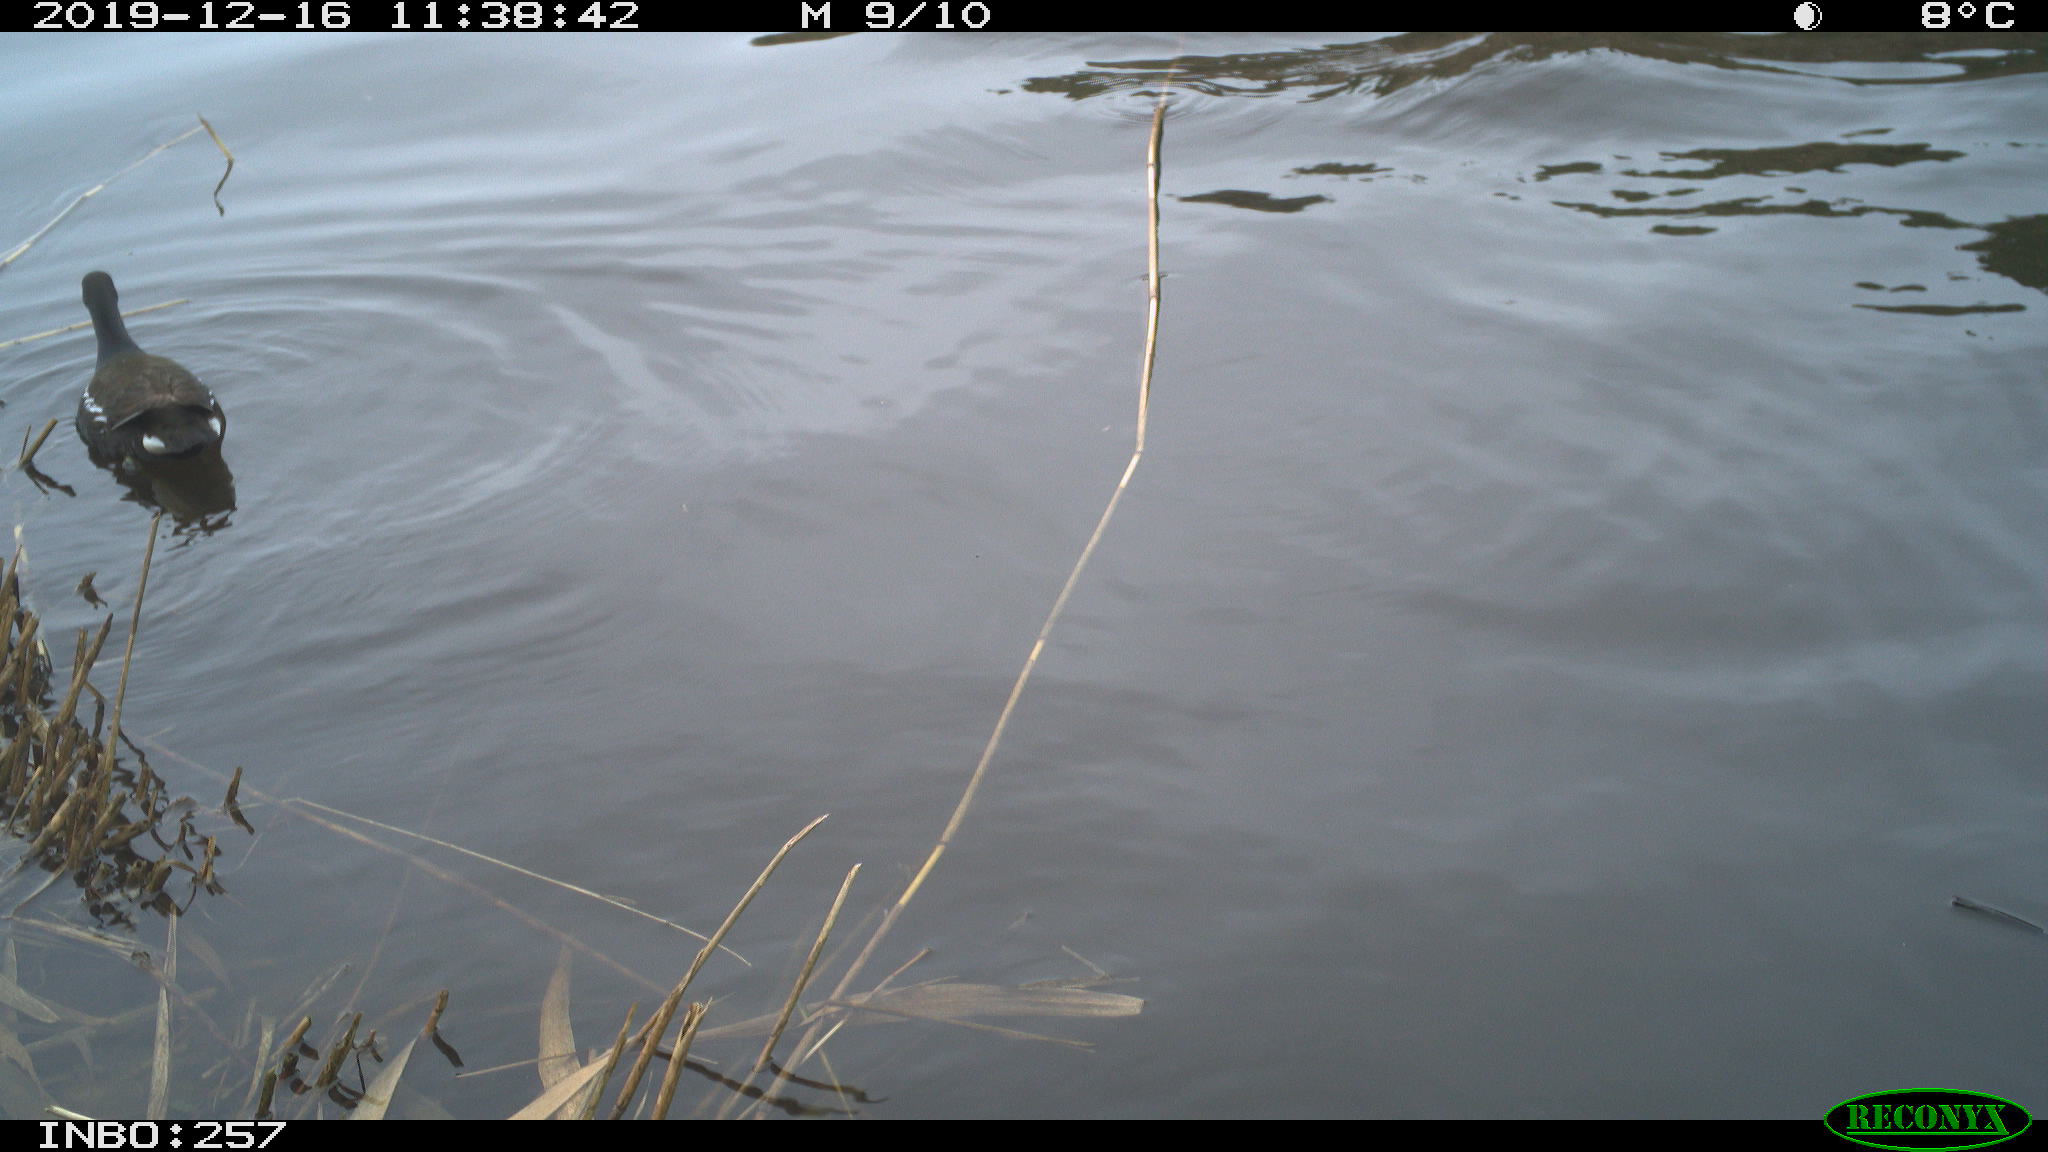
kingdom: Animalia
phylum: Chordata
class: Aves
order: Gruiformes
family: Rallidae
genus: Gallinula
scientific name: Gallinula chloropus
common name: Common moorhen
